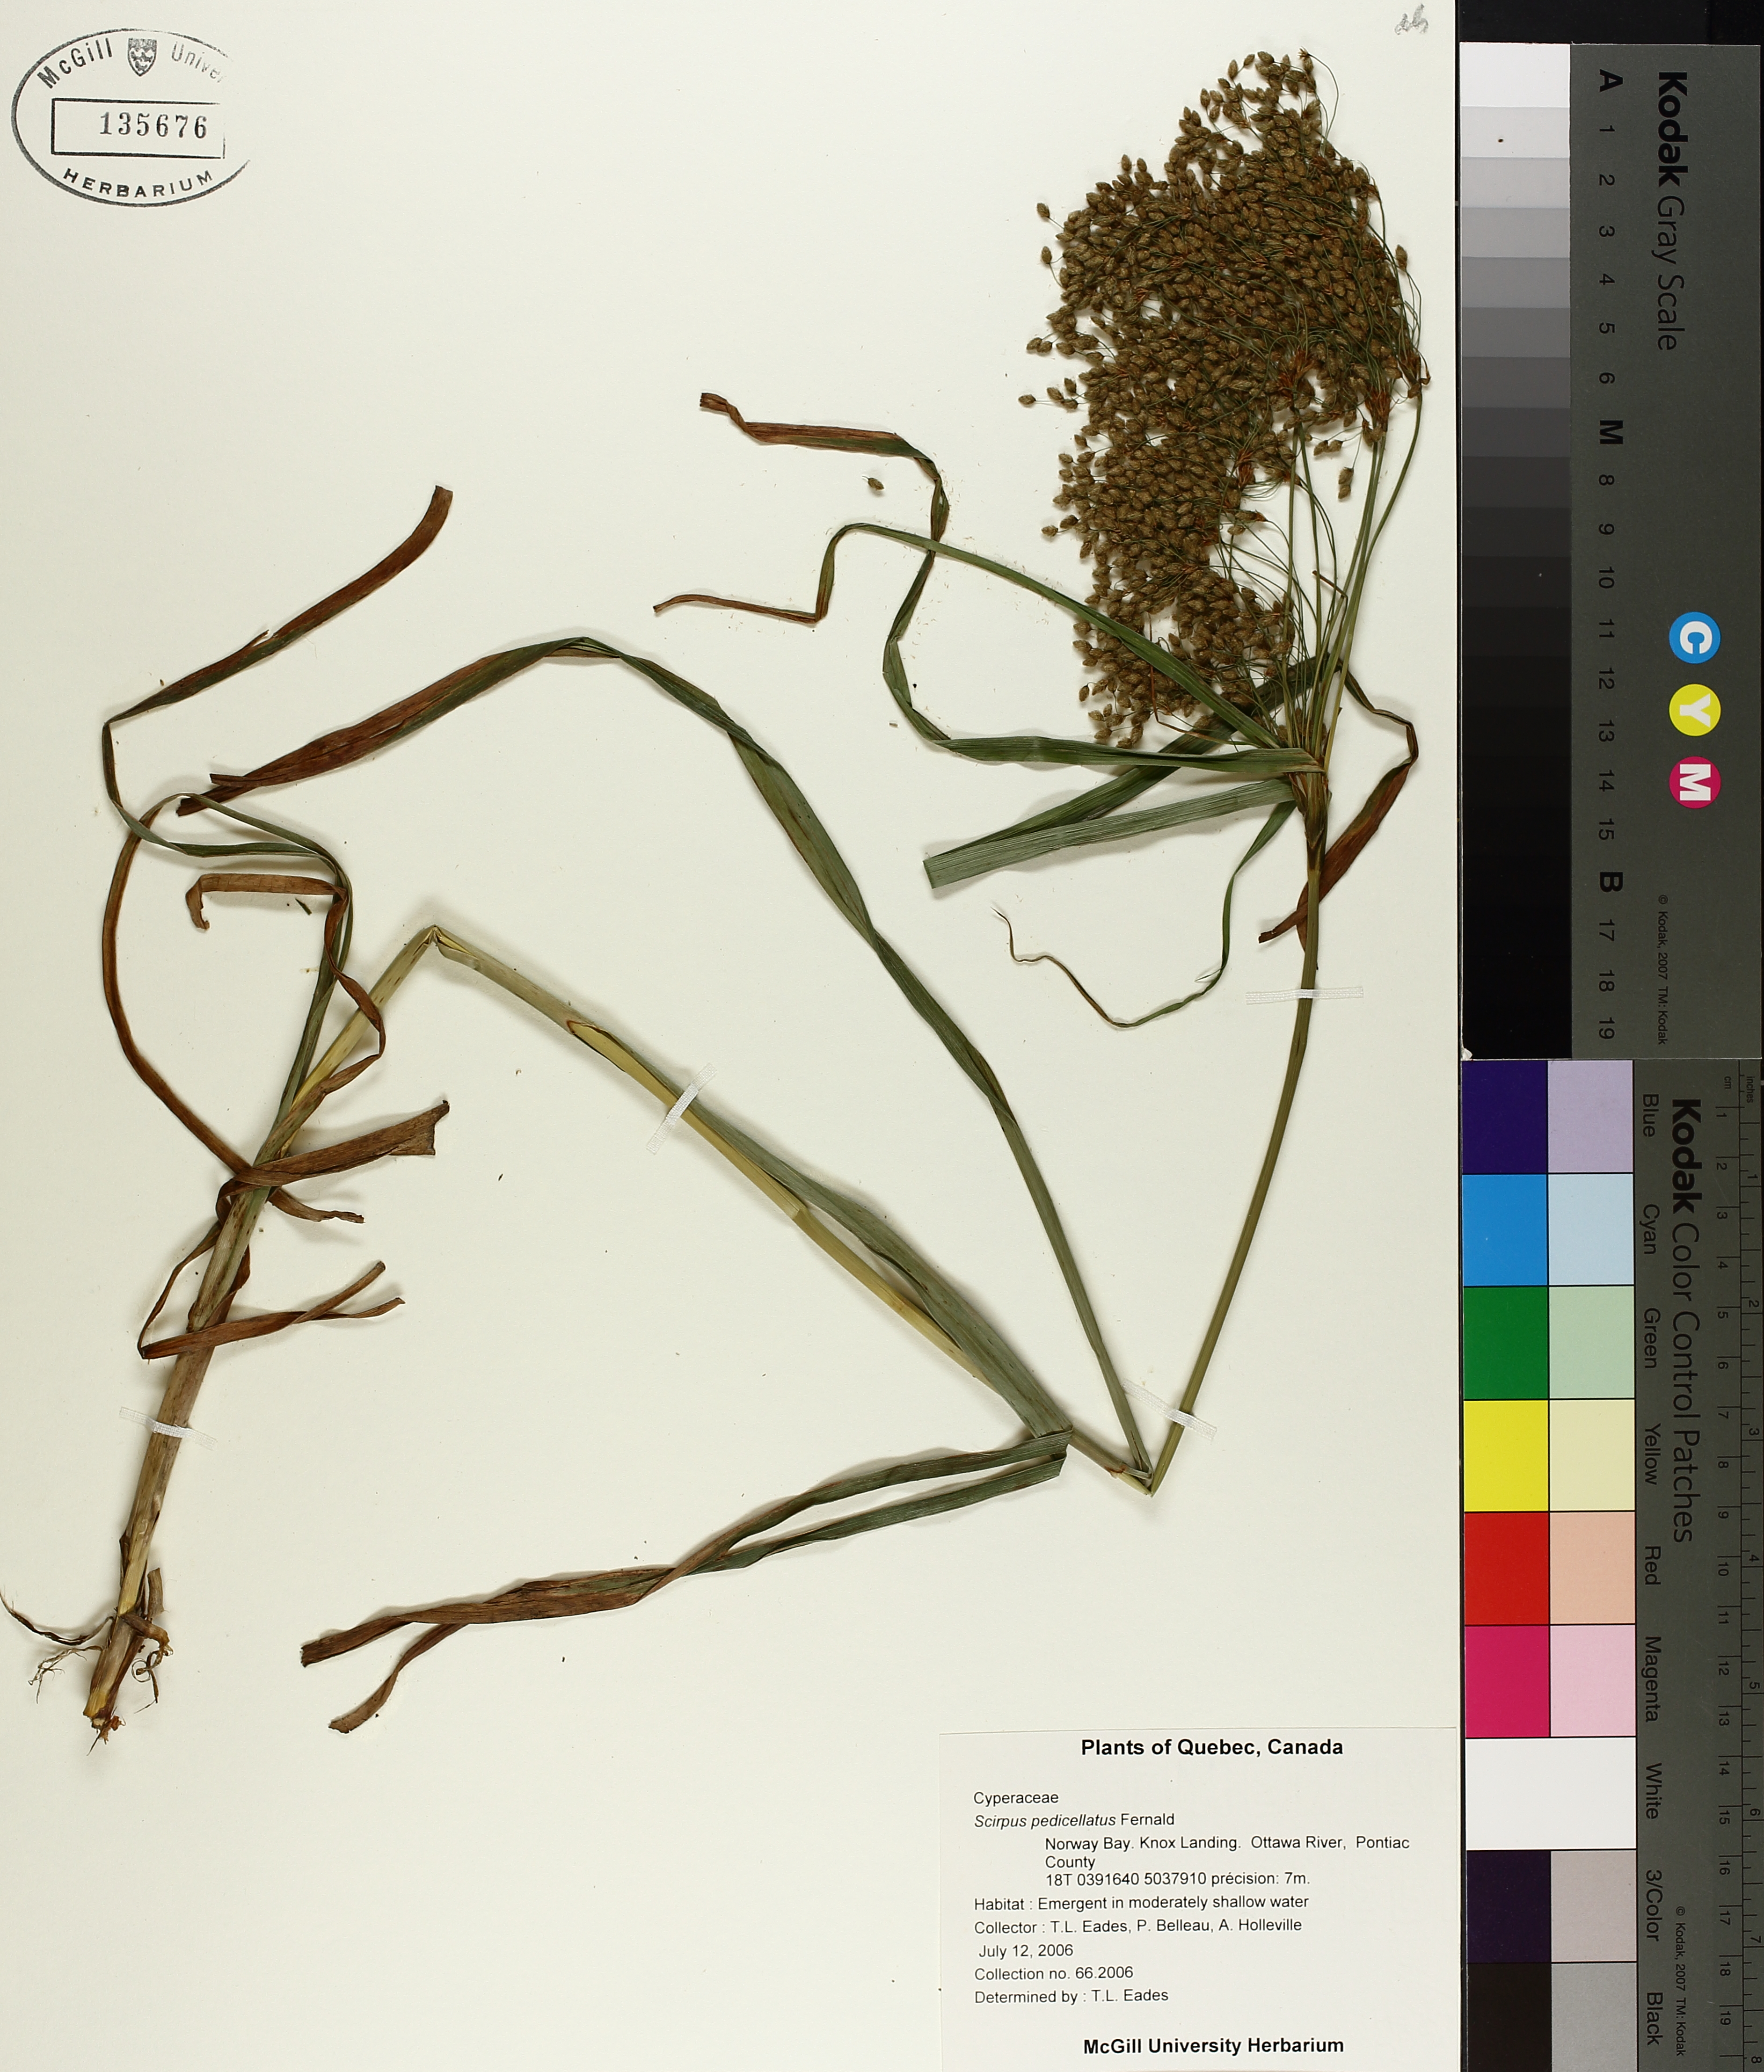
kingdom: Plantae
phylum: Tracheophyta
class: Liliopsida
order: Poales
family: Cyperaceae
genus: Scirpus
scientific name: Scirpus pedicellatus
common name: Pedicelled bulrush
